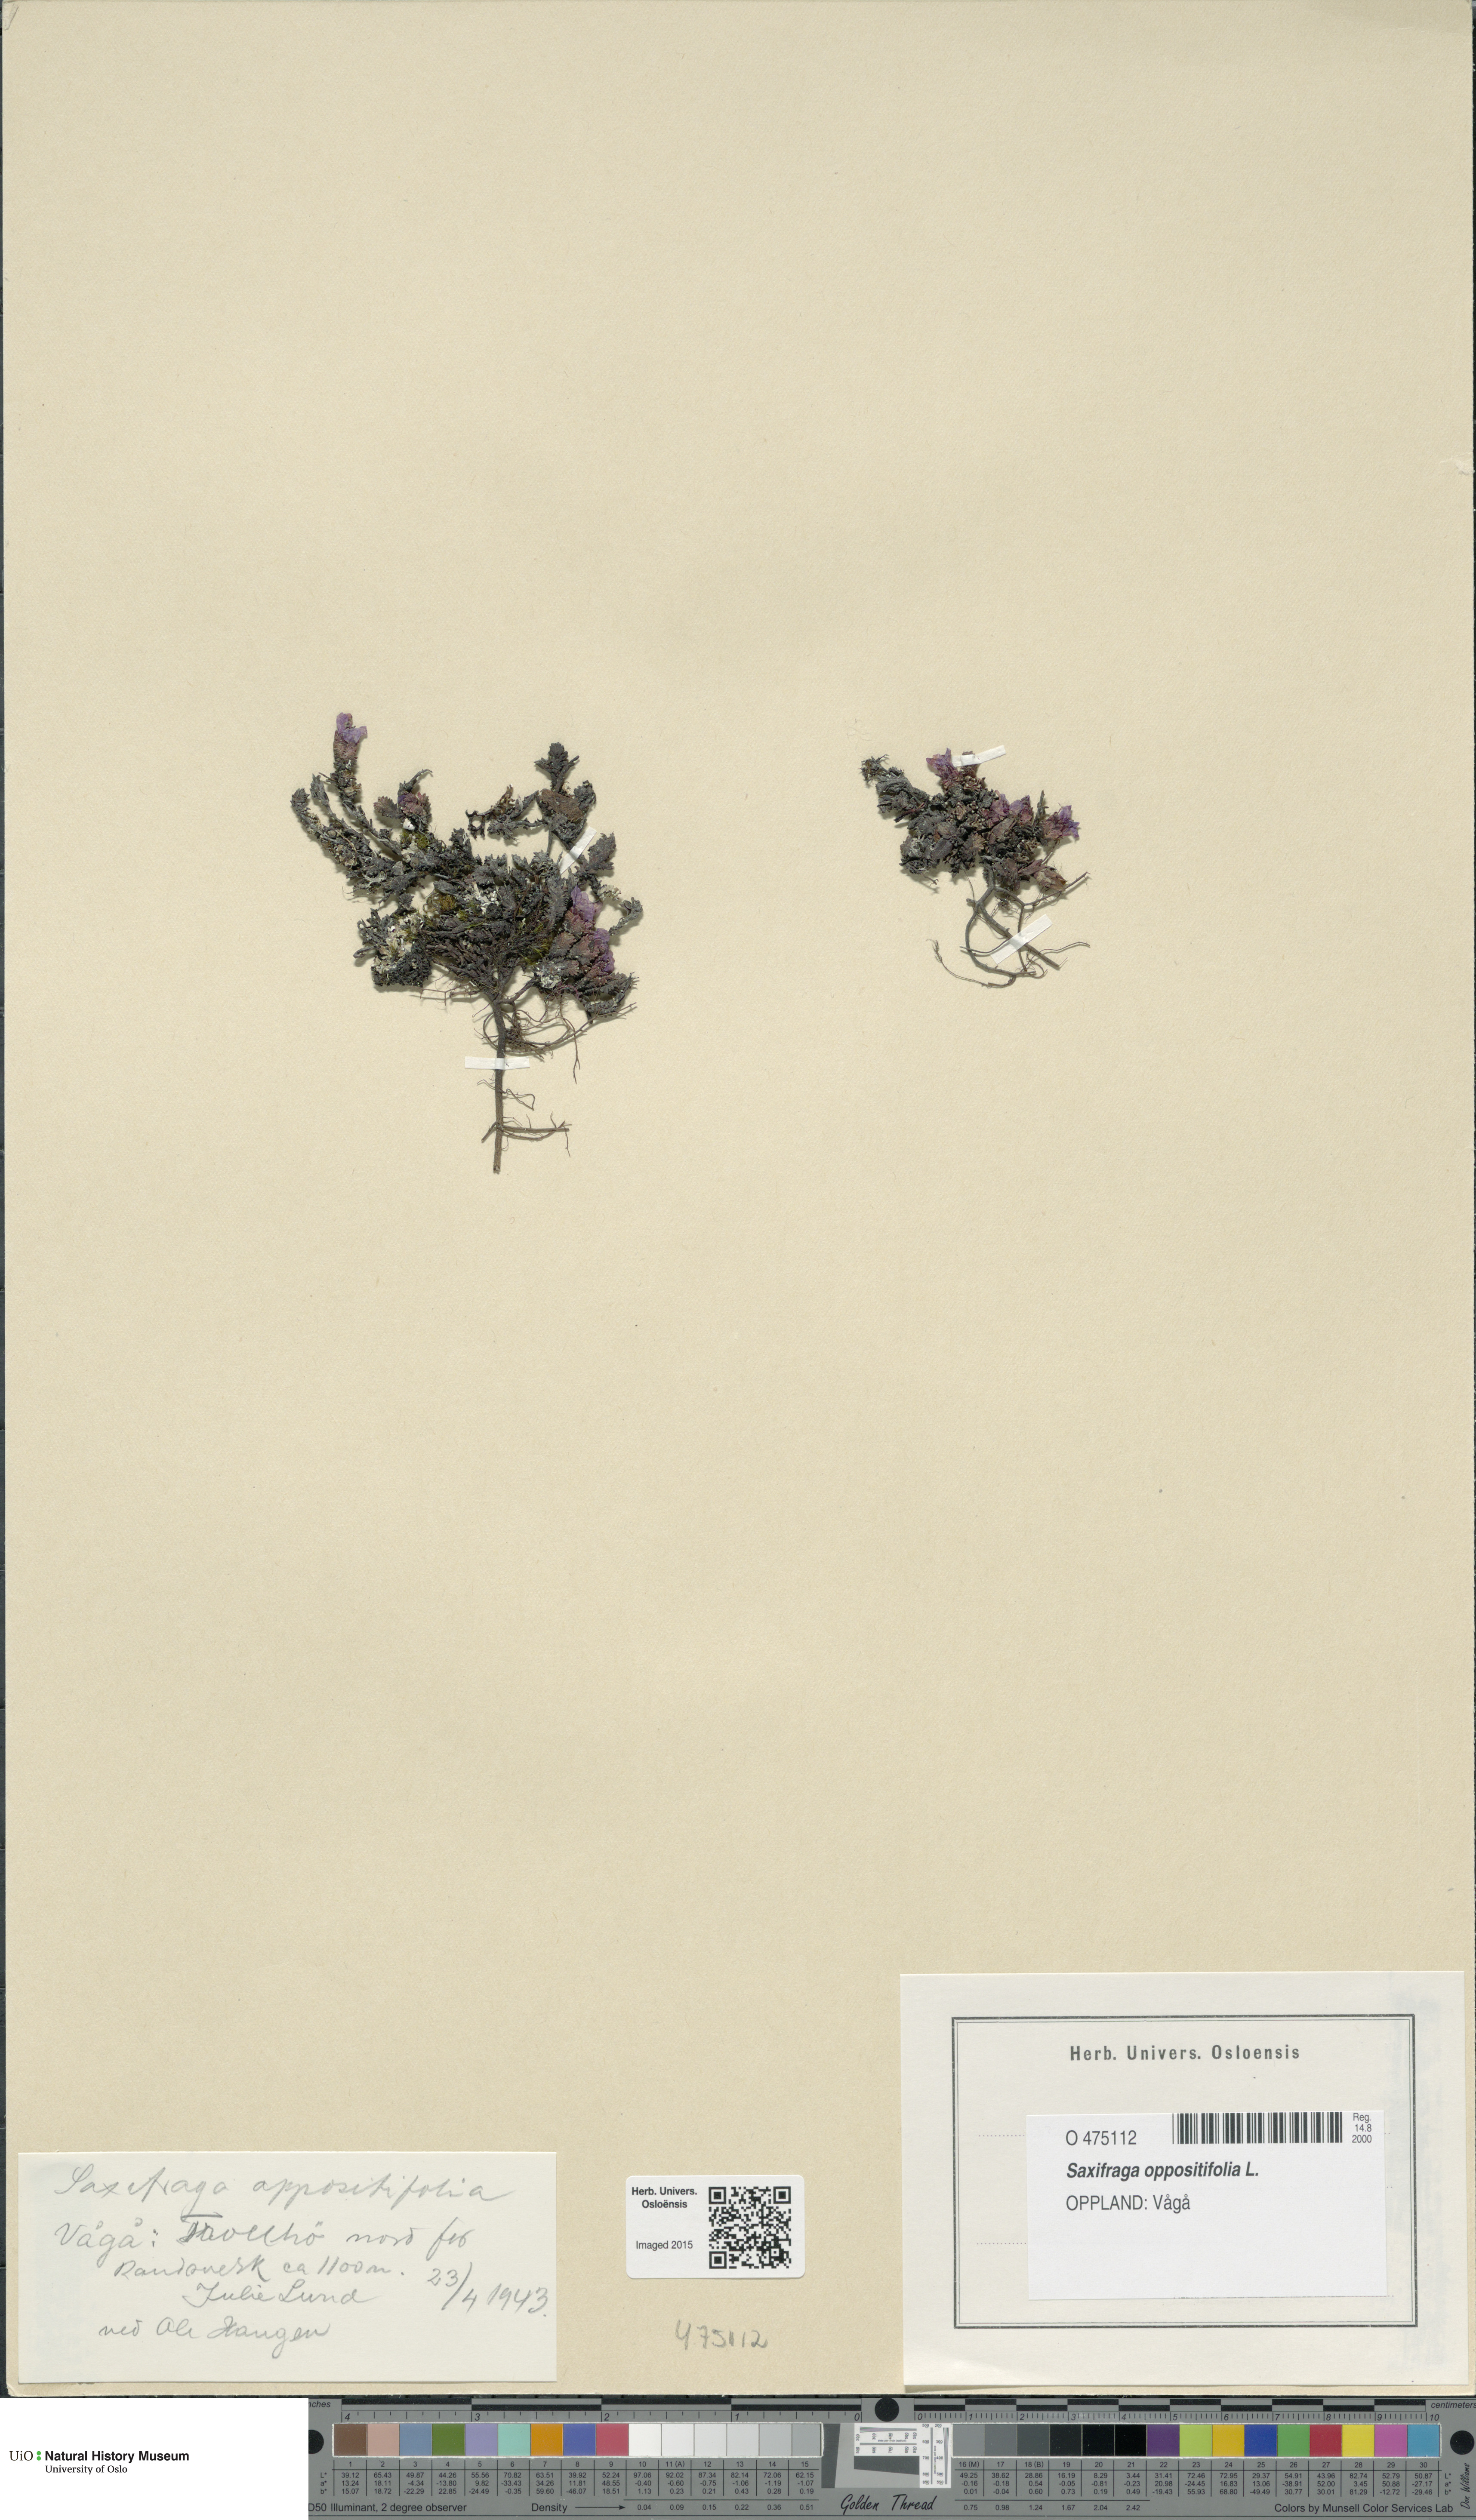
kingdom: Plantae
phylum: Tracheophyta
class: Magnoliopsida
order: Saxifragales
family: Saxifragaceae
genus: Saxifraga
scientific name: Saxifraga oppositifolia
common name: Purple saxifrage
